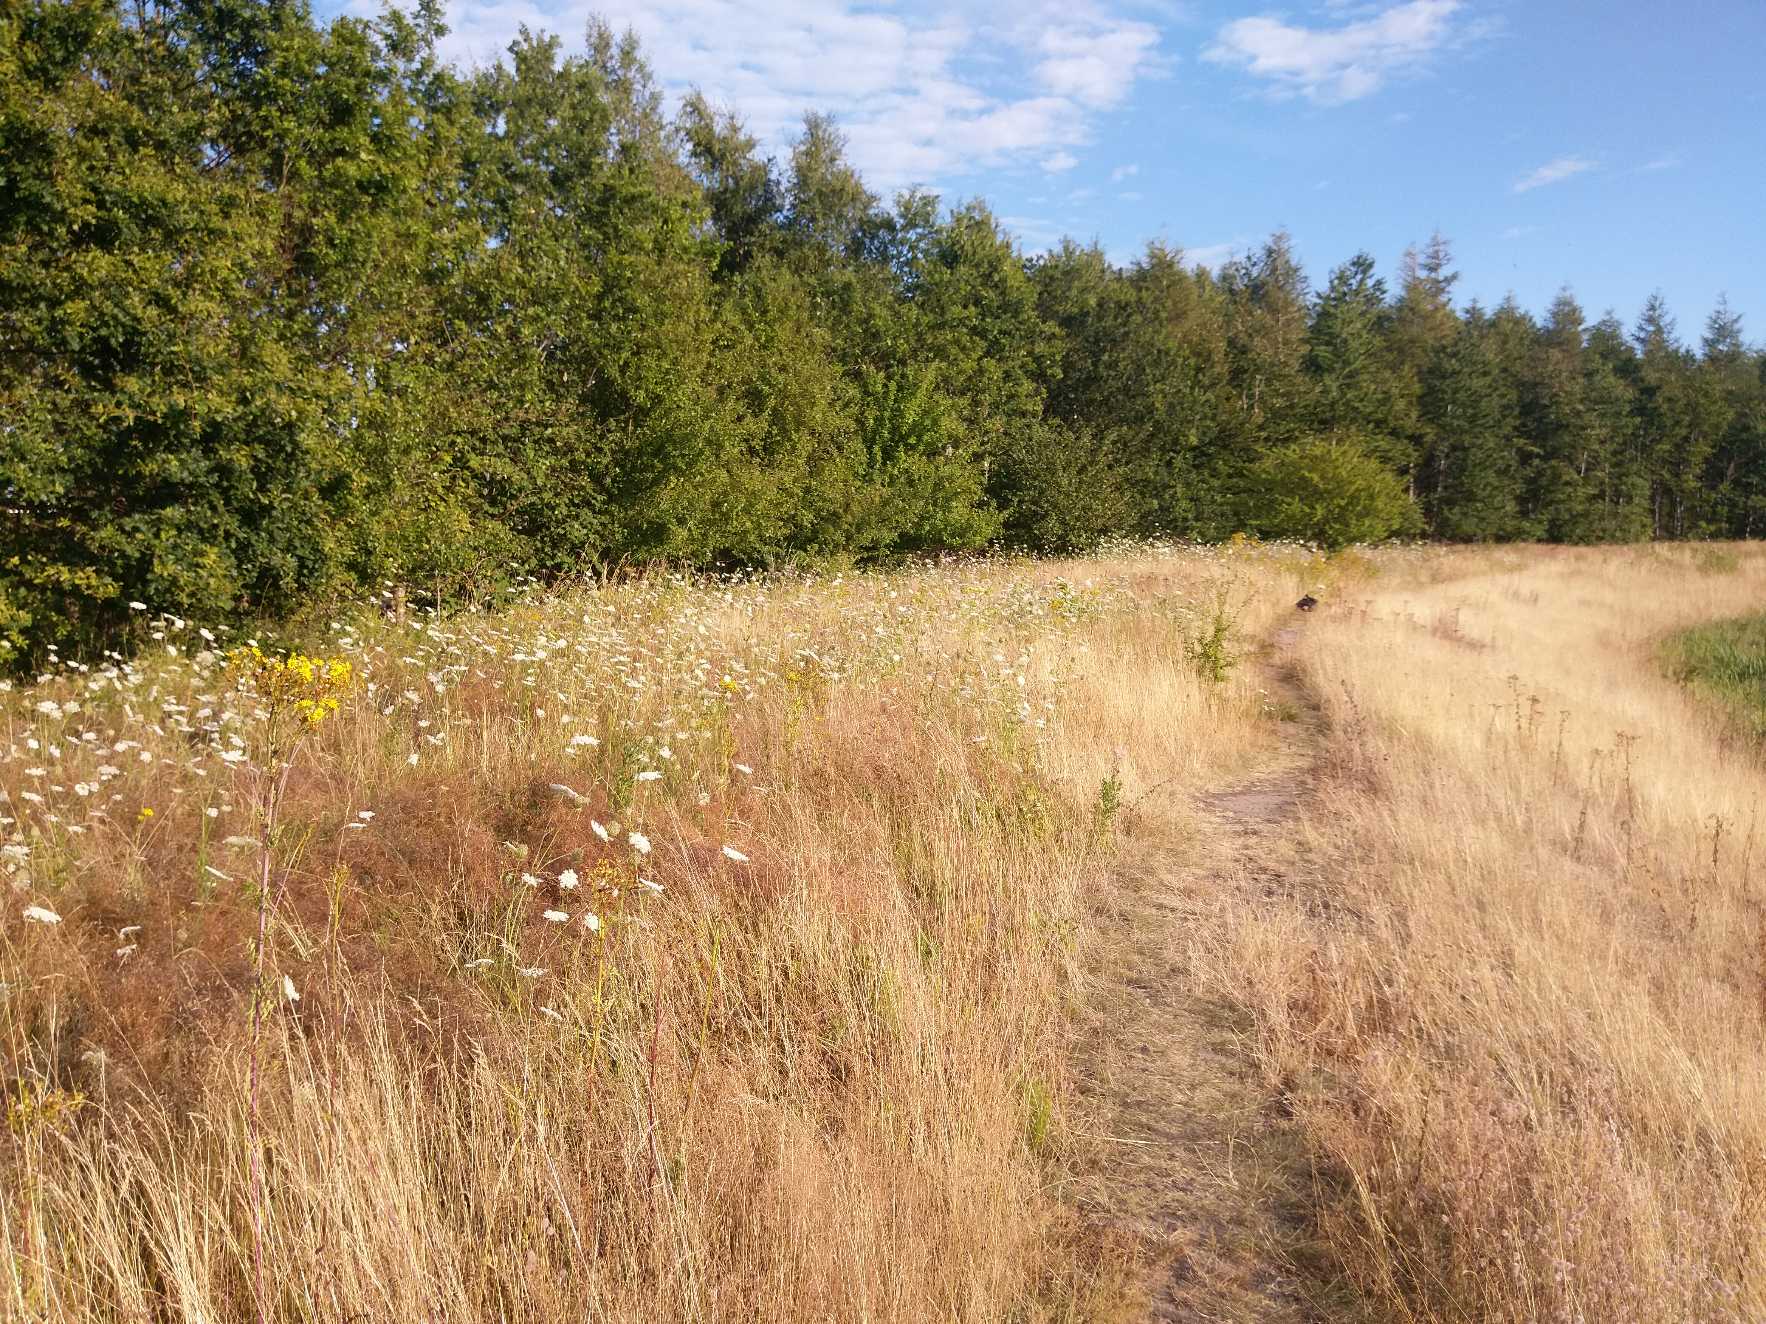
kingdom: Animalia
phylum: Arthropoda
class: Insecta
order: Lepidoptera
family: Erebidae
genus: Tyria
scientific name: Tyria jacobaeae
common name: Blodplet
